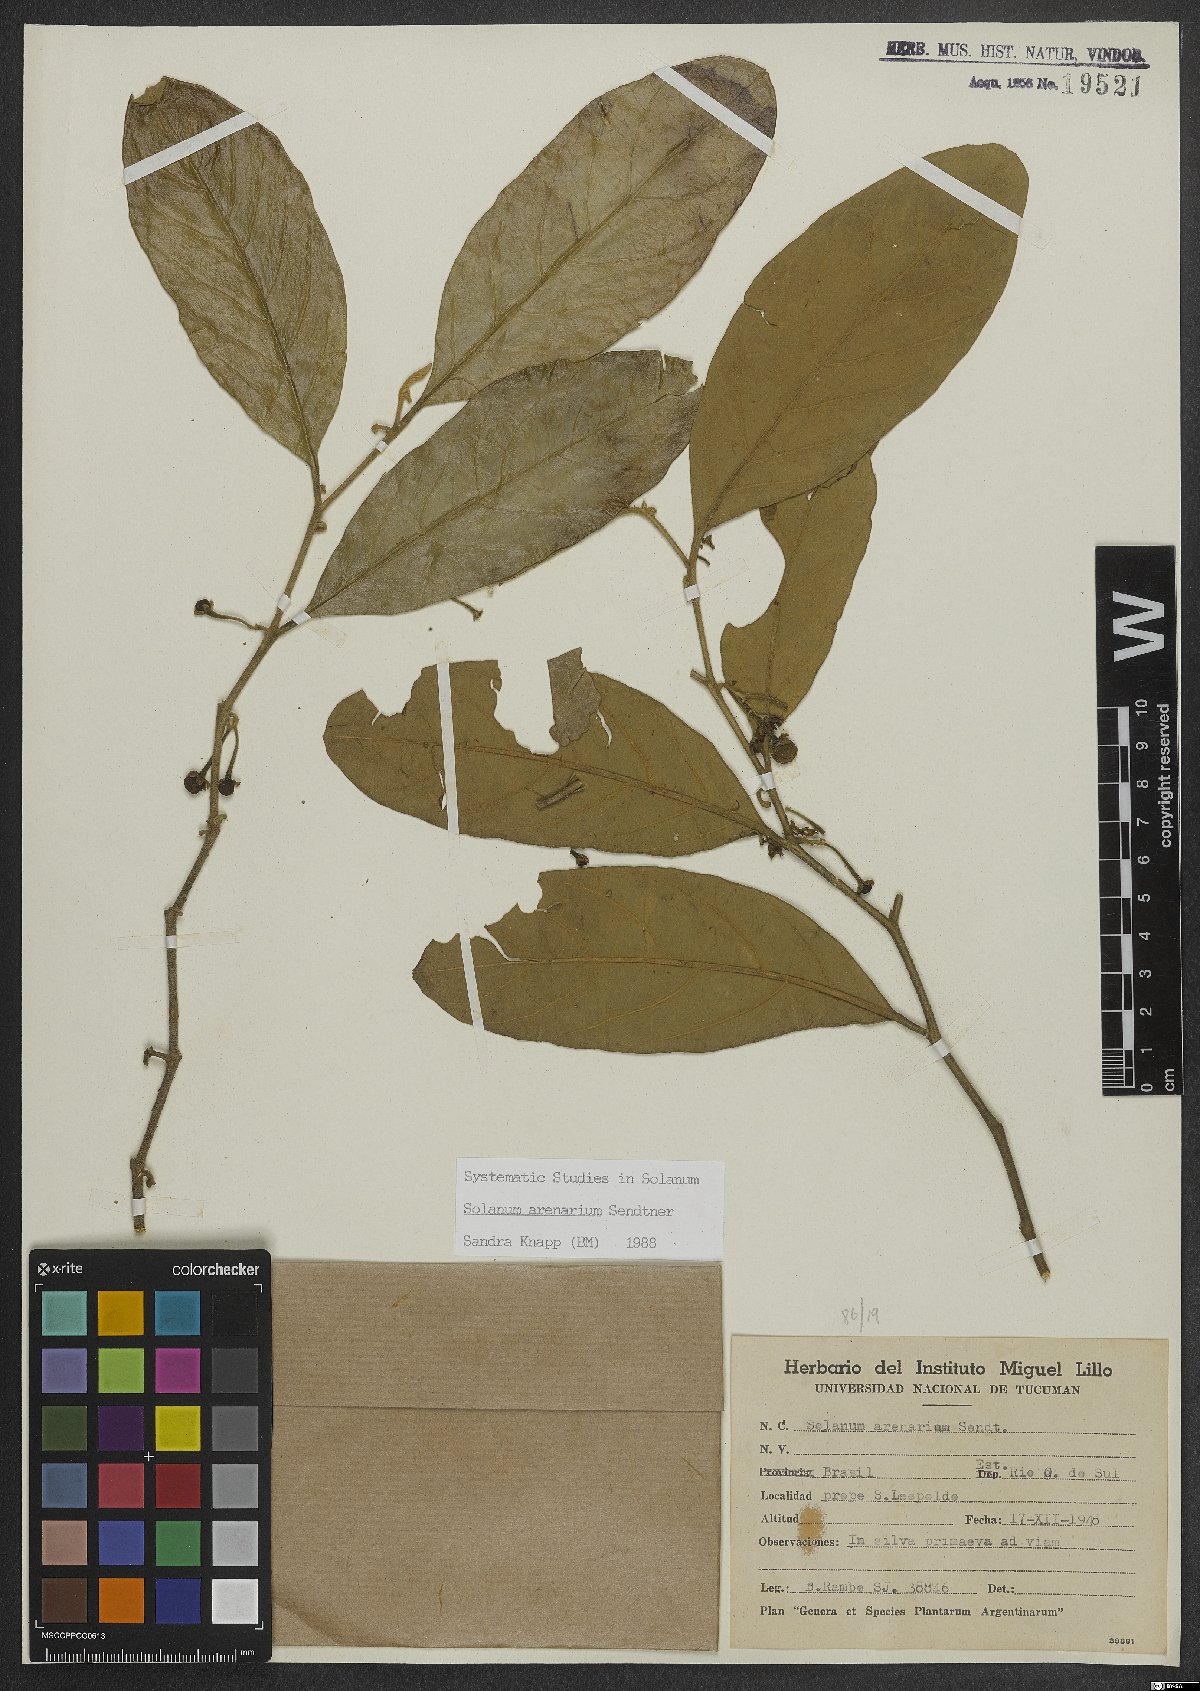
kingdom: Plantae
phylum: Tracheophyta
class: Magnoliopsida
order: Solanales
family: Solanaceae
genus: Solanum
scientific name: Solanum arenarium
